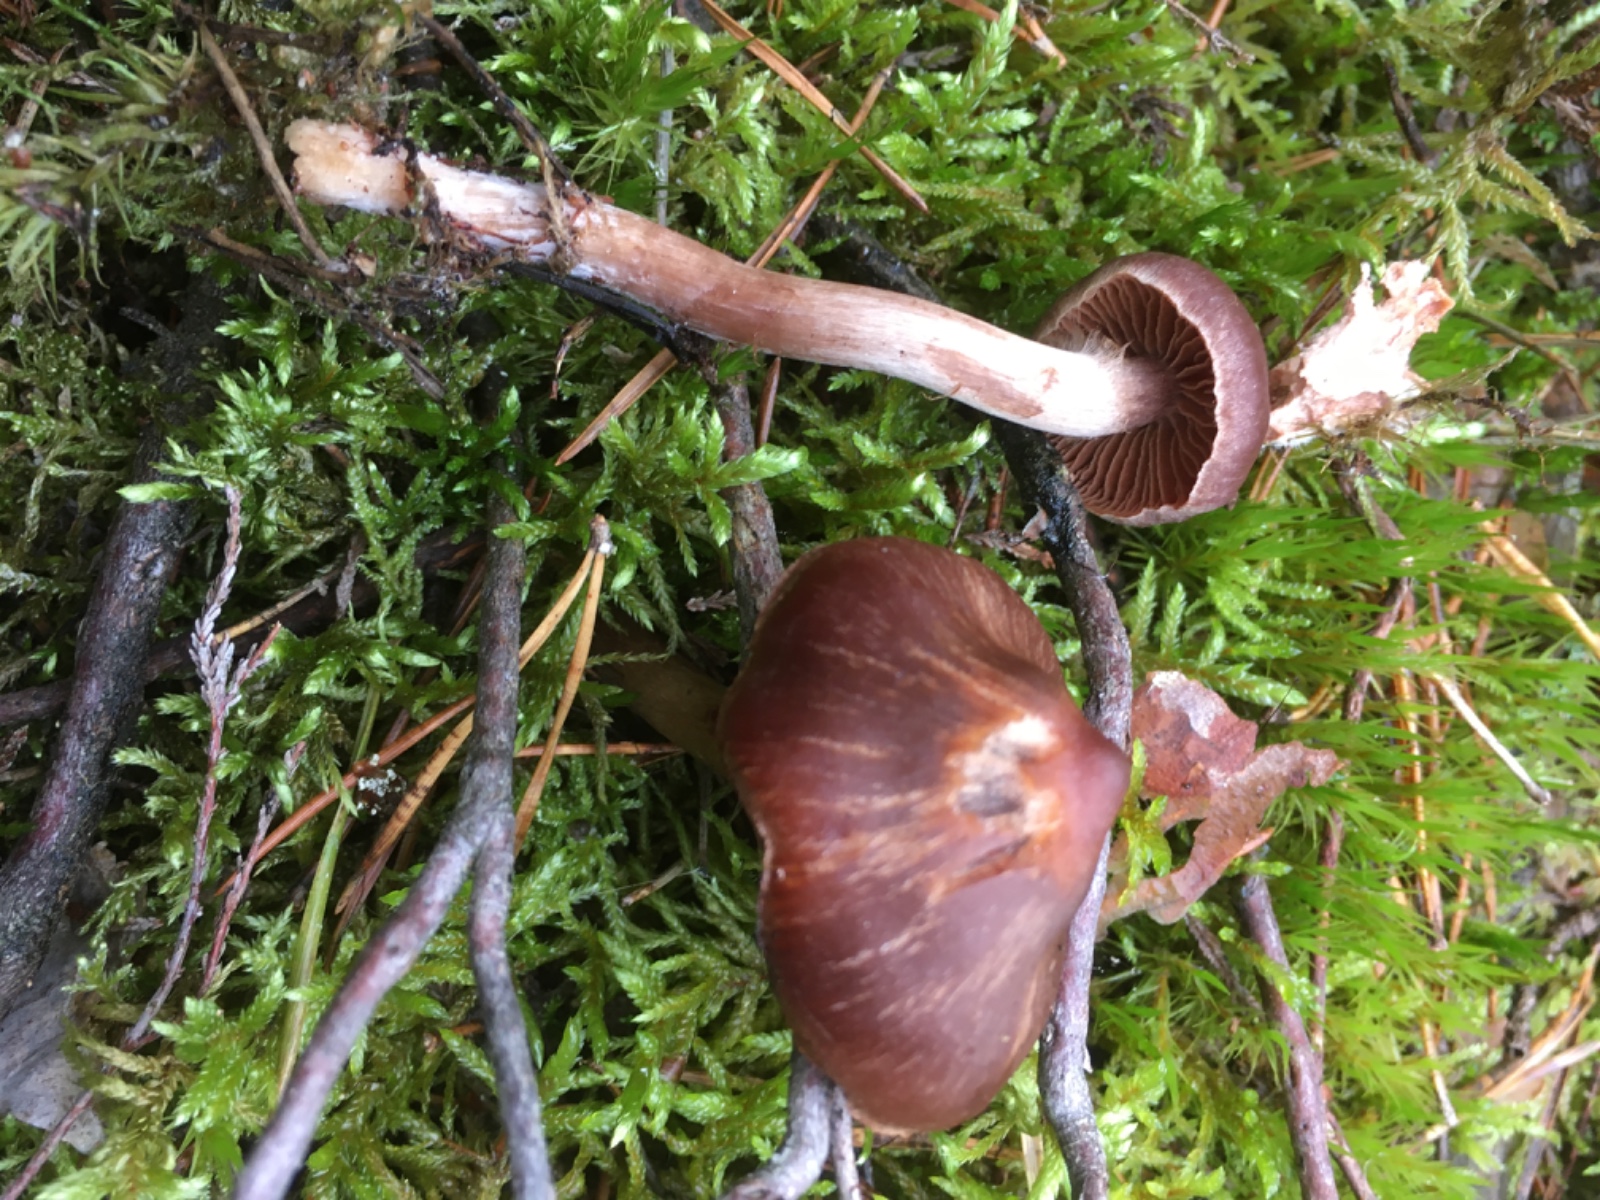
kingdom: Fungi
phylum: Basidiomycota
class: Agaricomycetes
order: Agaricales
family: Cortinariaceae
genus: Cortinarius
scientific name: Cortinarius
